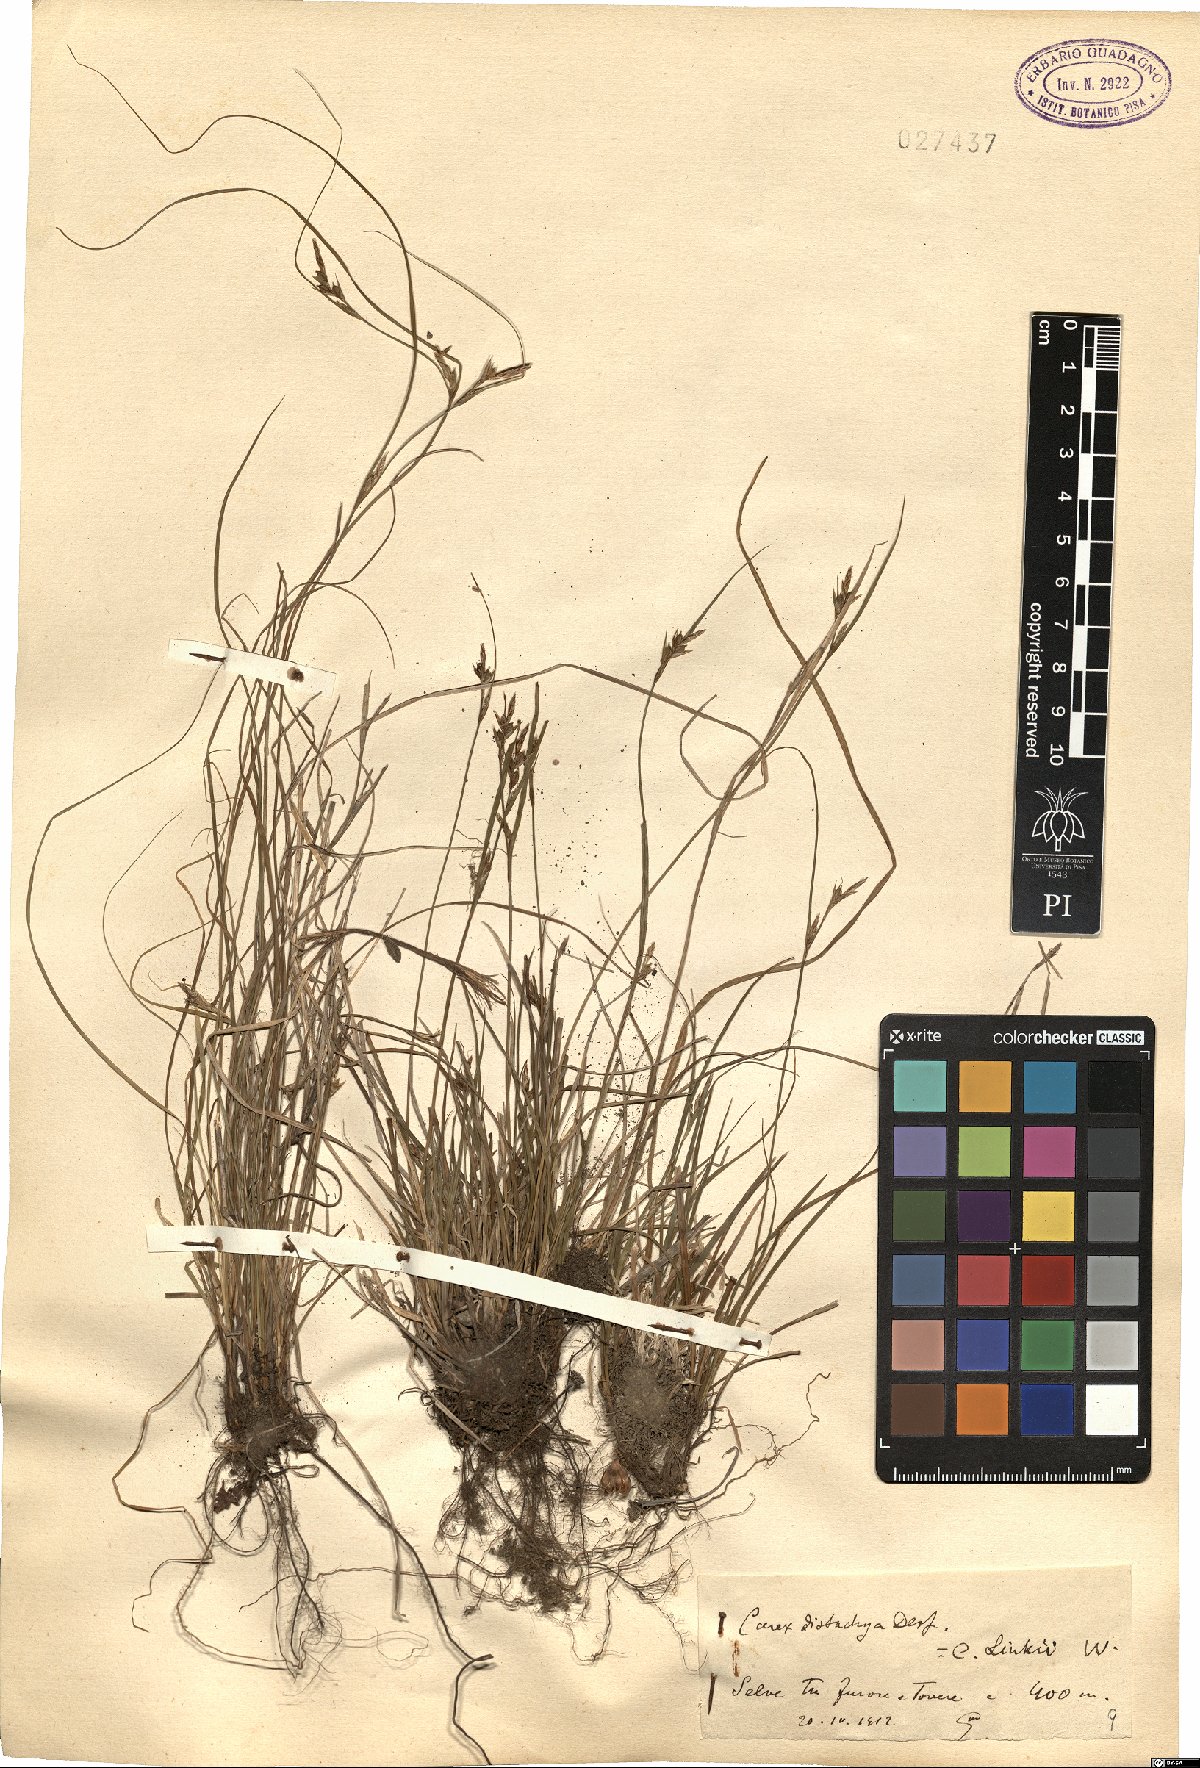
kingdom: Plantae
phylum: Tracheophyta
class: Liliopsida
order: Poales
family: Cyperaceae
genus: Carex
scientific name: Carex distachya
